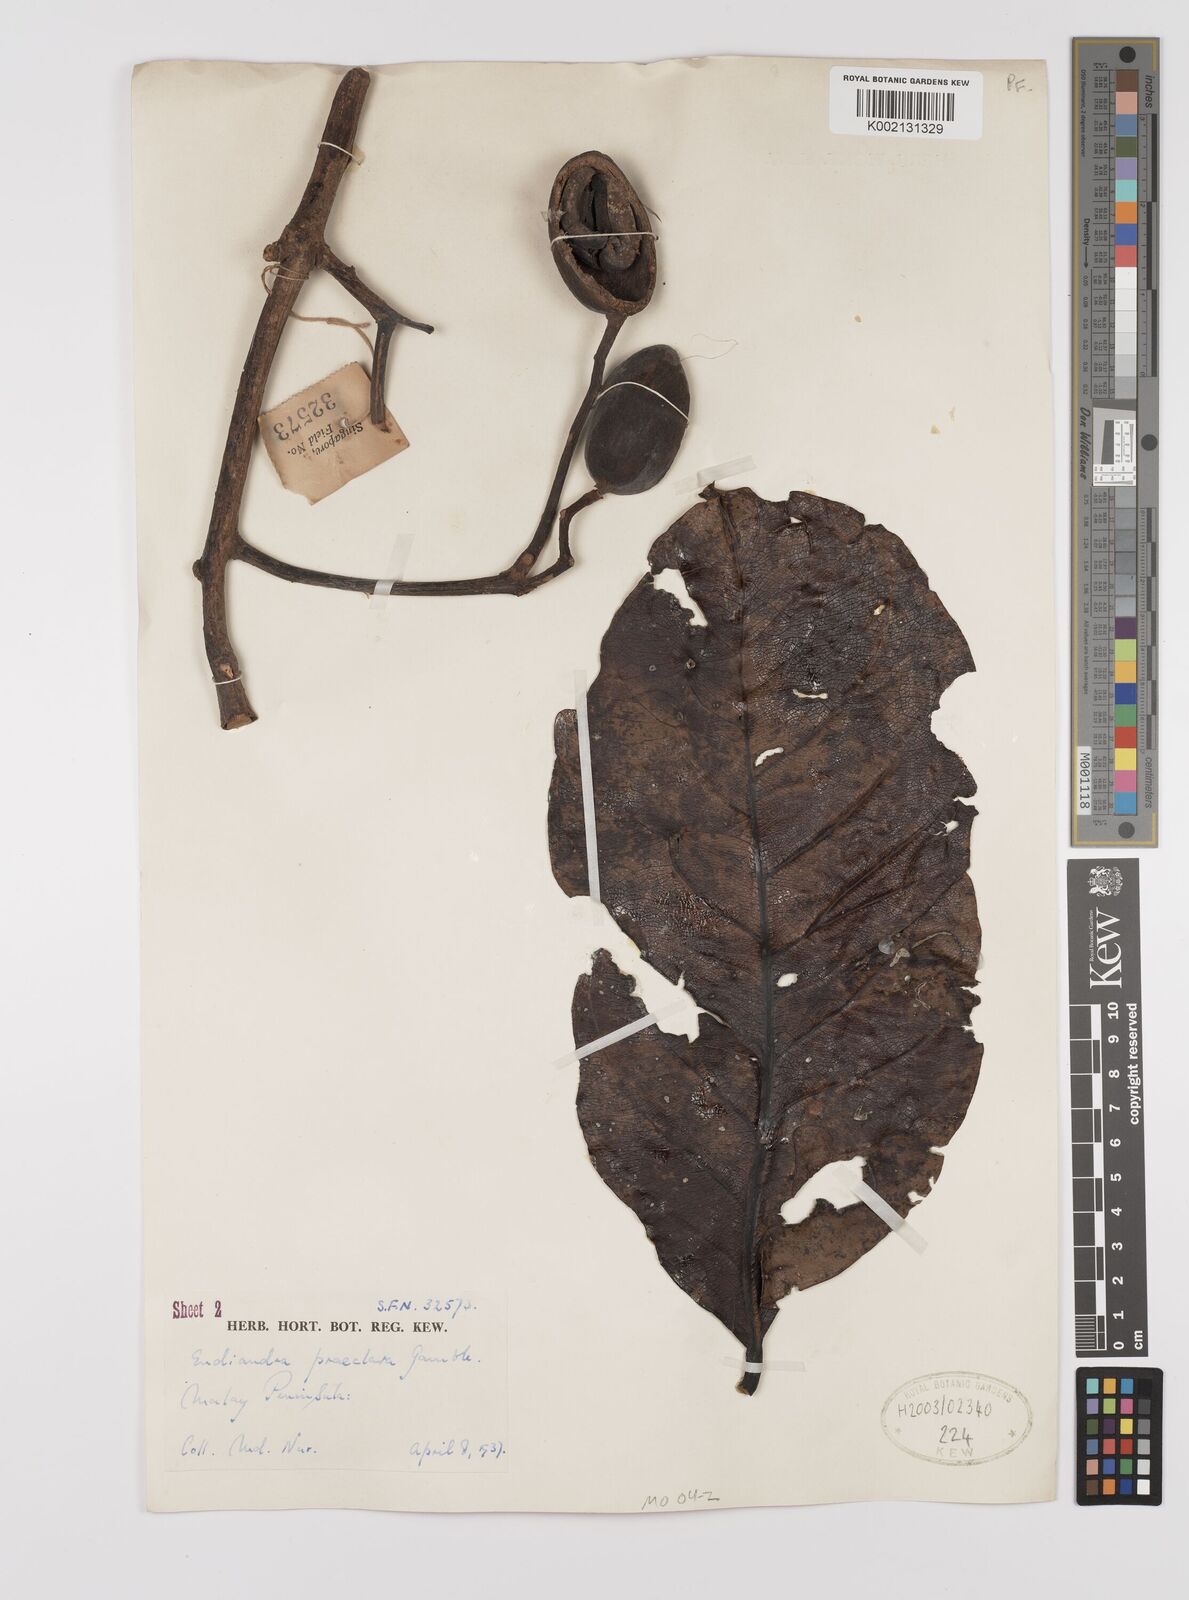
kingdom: Plantae
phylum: Tracheophyta
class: Magnoliopsida
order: Laurales
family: Lauraceae
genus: Endiandra
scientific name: Endiandra praeclara
